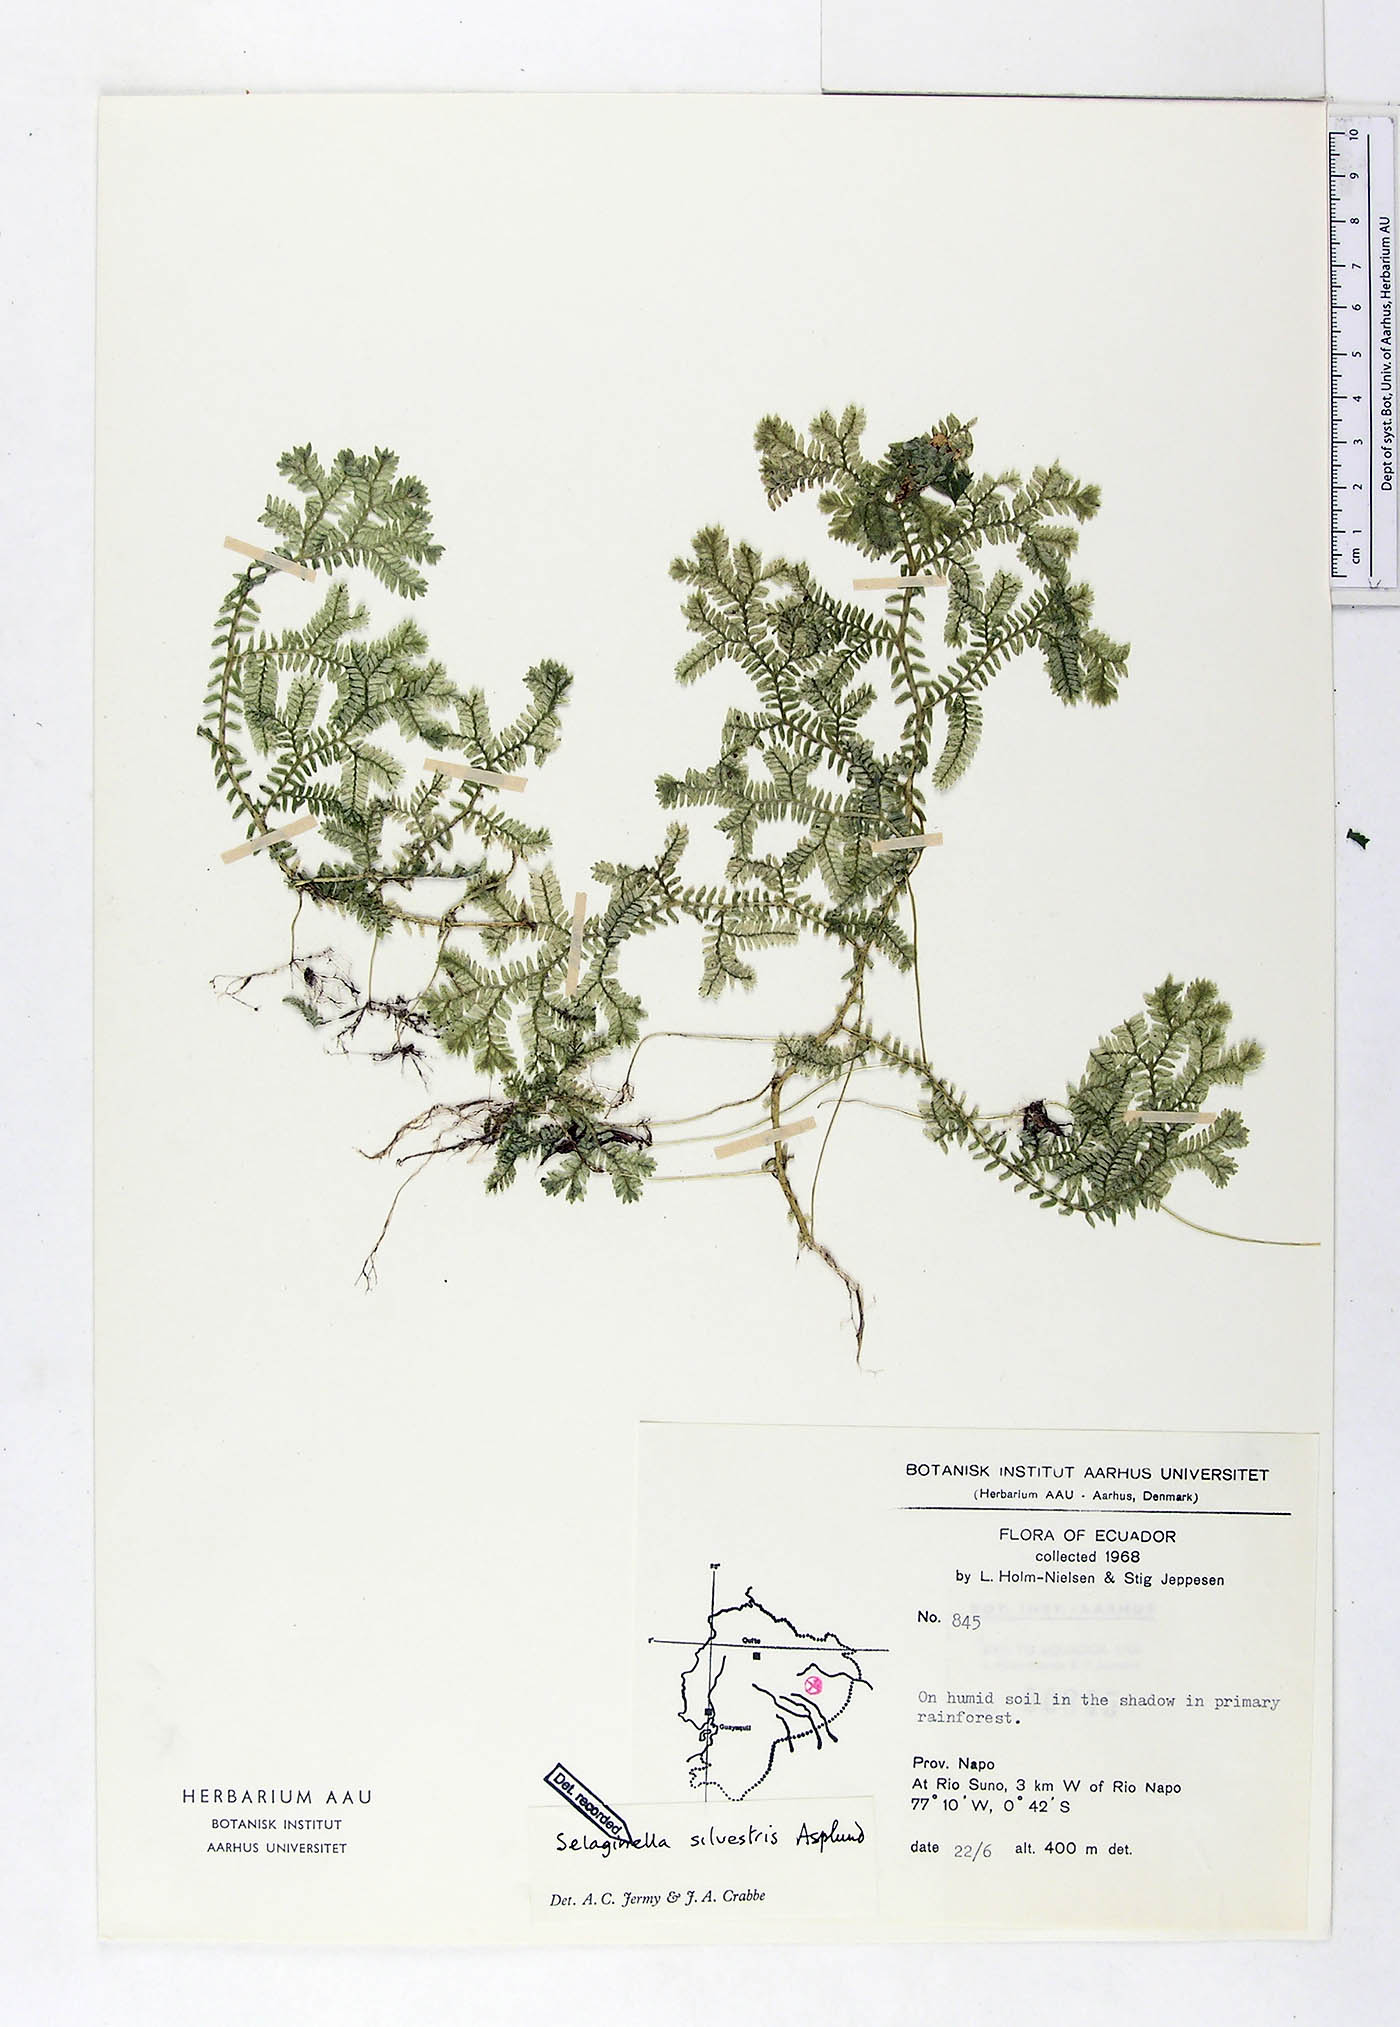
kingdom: Plantae
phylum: Tracheophyta
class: Lycopodiopsida
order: Selaginellales
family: Selaginellaceae
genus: Selaginella
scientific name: Selaginella silvestris
